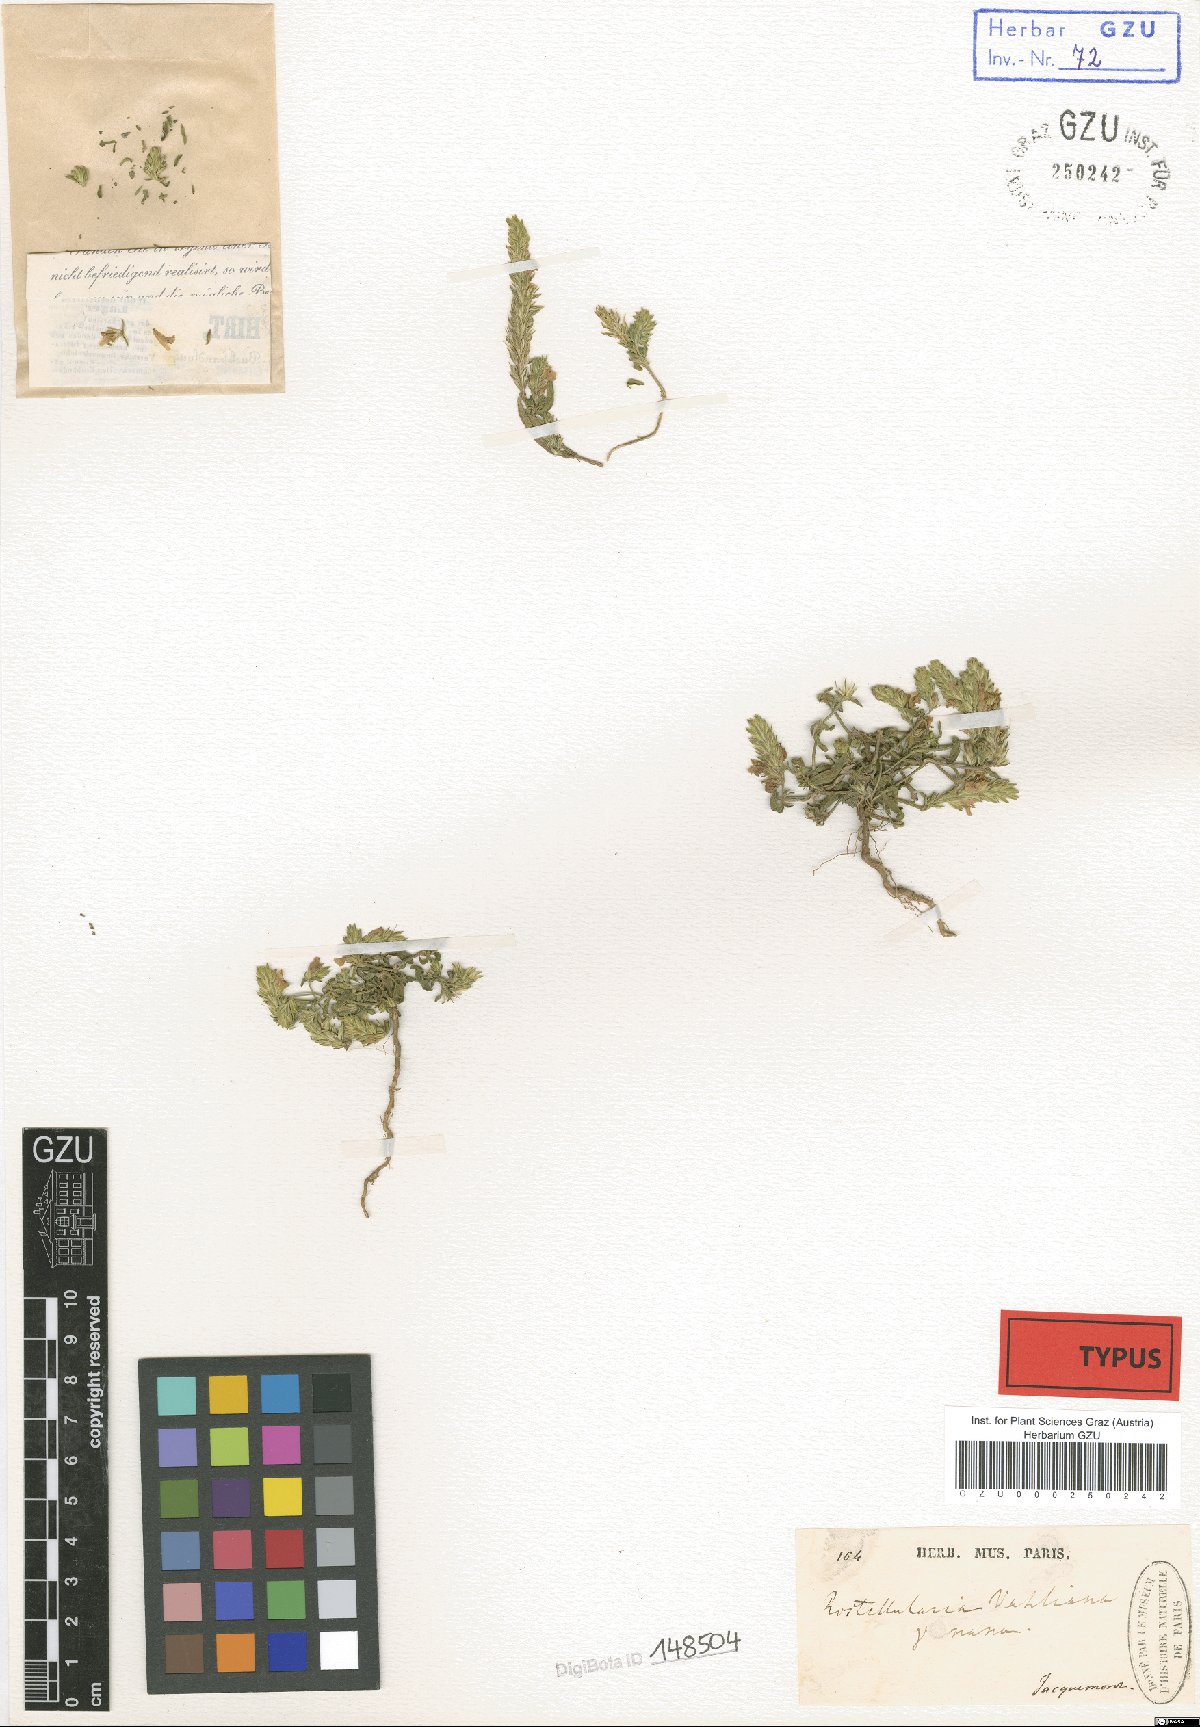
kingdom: Plantae
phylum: Tracheophyta
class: Magnoliopsida
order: Lamiales
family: Acanthaceae
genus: Rostellularia
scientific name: Rostellularia vahlii
